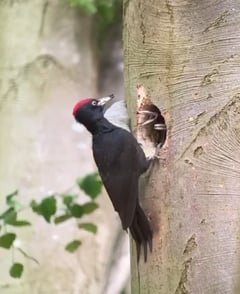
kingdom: Animalia
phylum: Chordata
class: Aves
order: Piciformes
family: Picidae
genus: Dryocopus
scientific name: Dryocopus martius
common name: Black woodpecker
